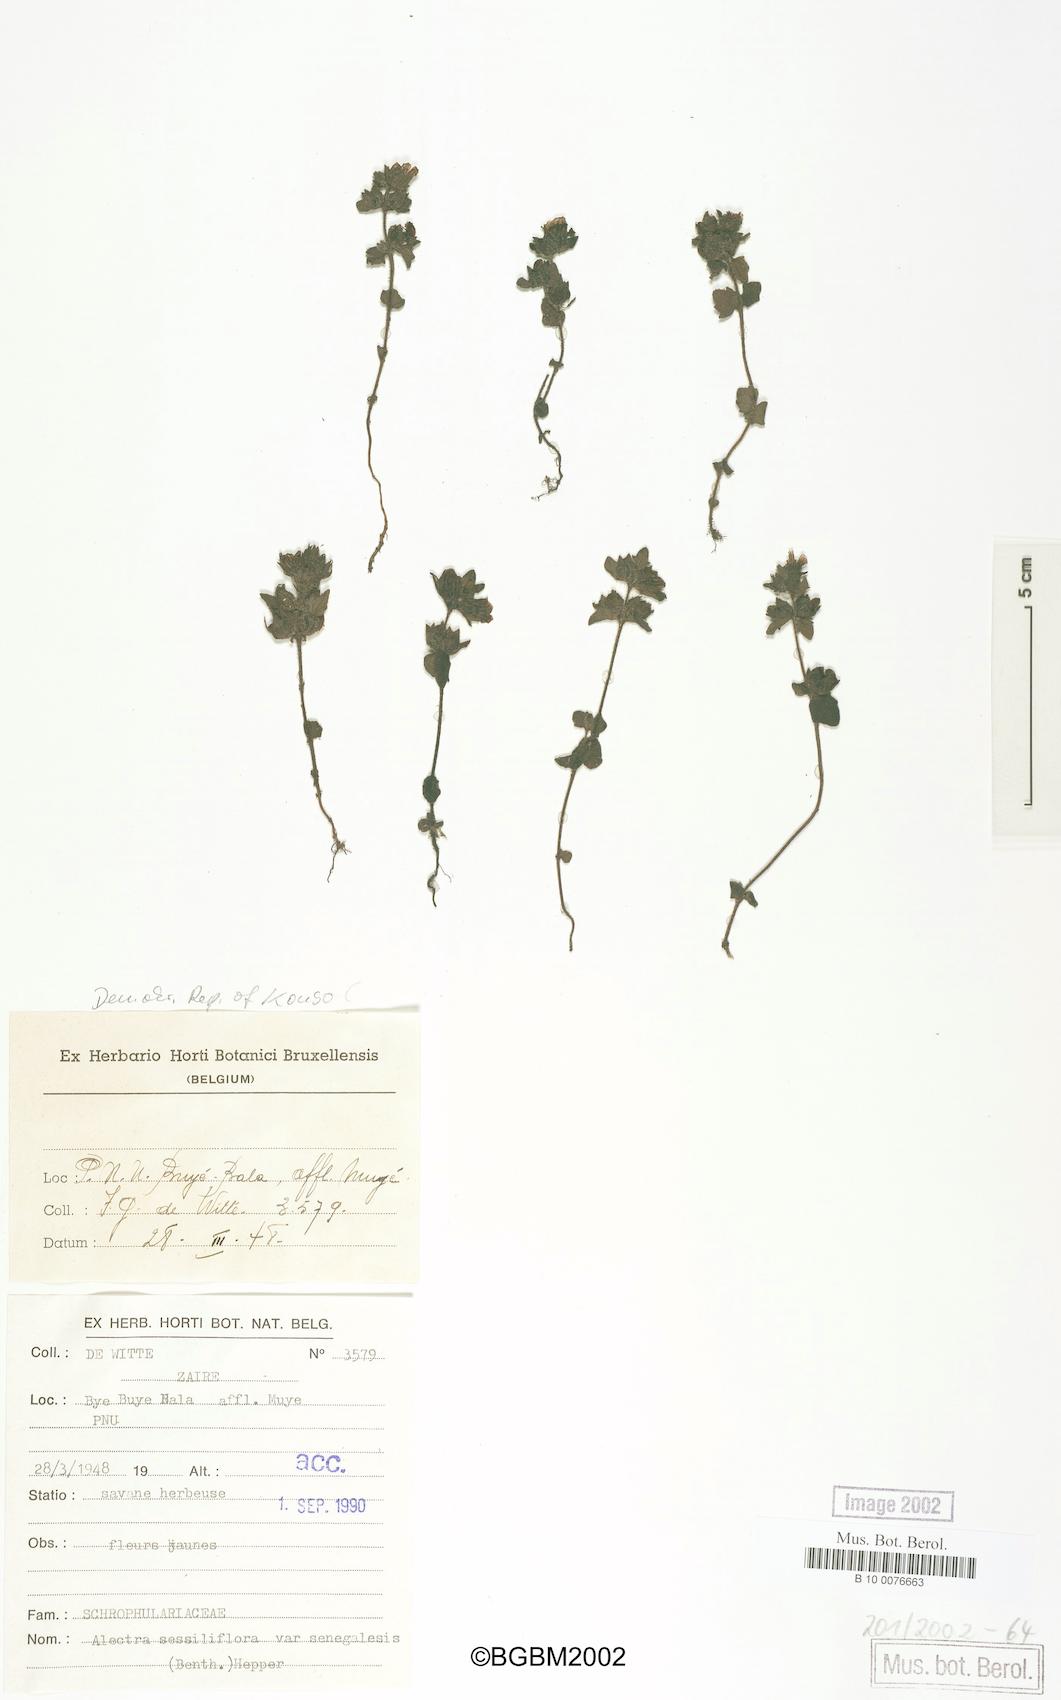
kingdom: Plantae
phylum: Tracheophyta
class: Magnoliopsida
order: Lamiales
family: Orobanchaceae
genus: Alectra
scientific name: Alectra sessiliflora
